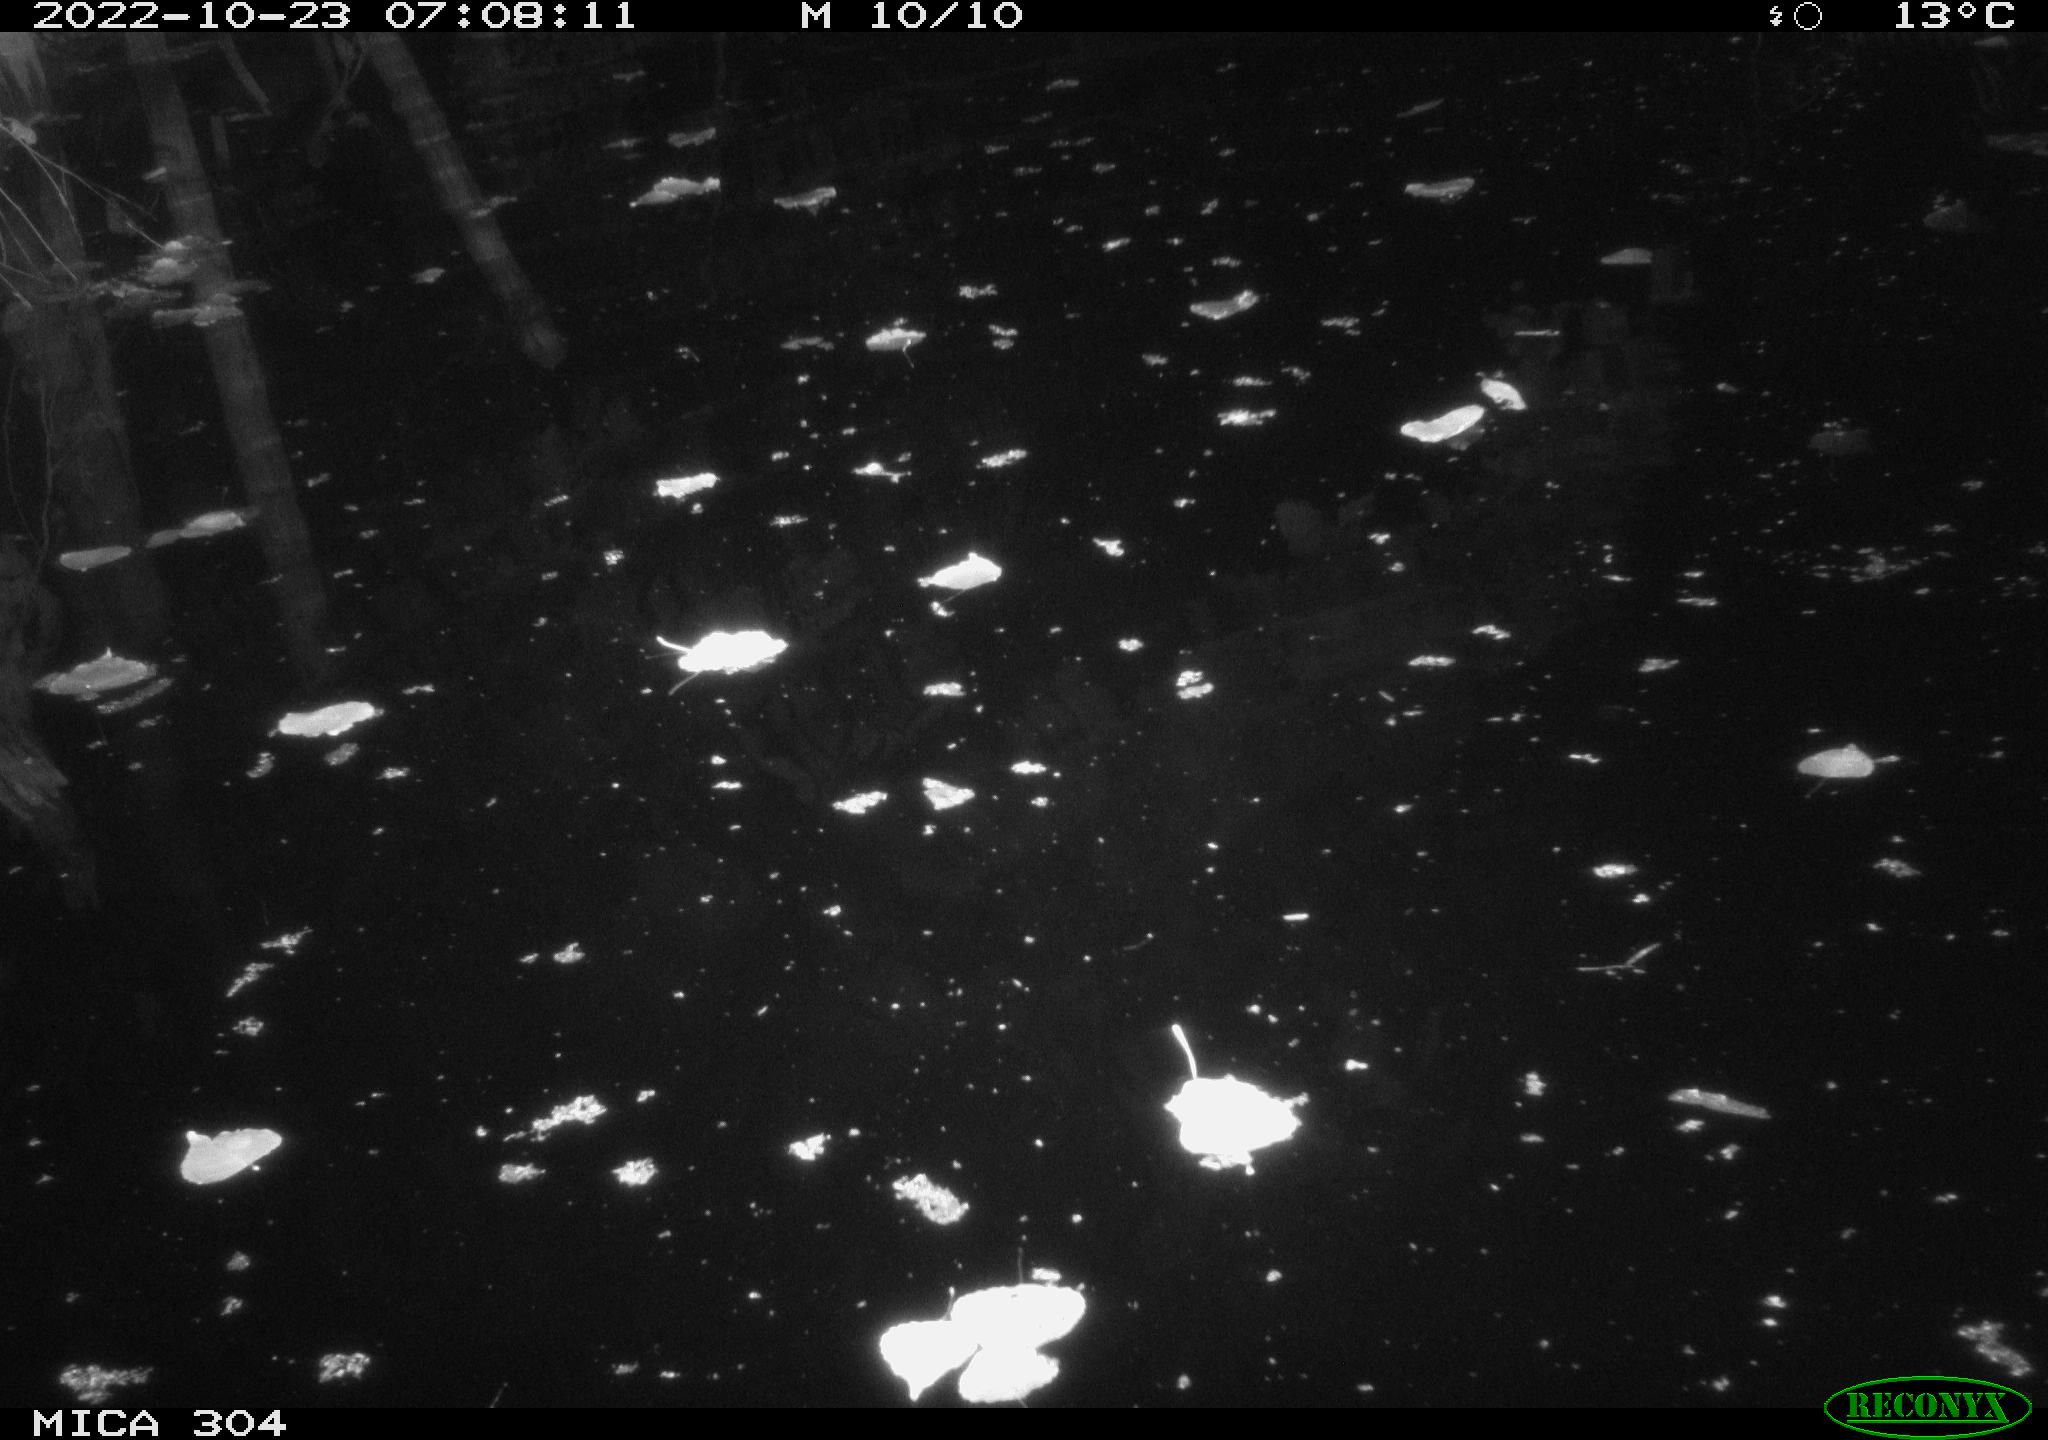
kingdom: Animalia
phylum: Chordata
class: Aves
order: Anseriformes
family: Anatidae
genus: Anas
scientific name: Anas
